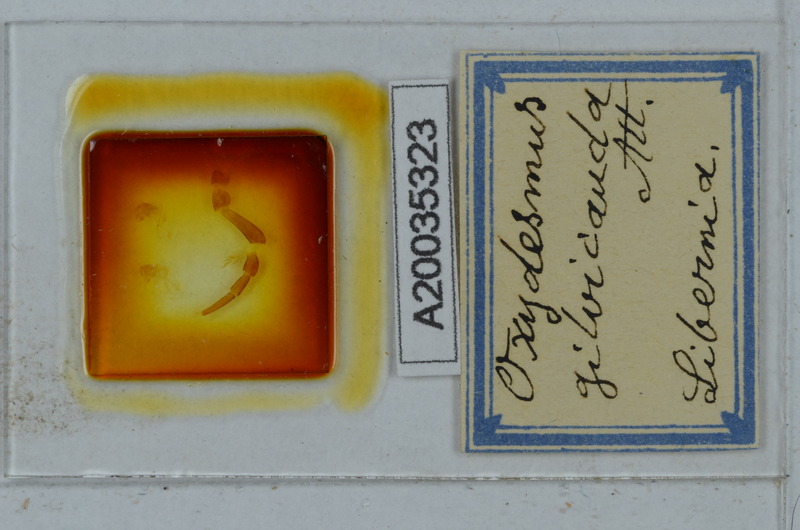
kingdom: Animalia
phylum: Arthropoda
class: Diplopoda
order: Polydesmida
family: Oxydesmidae
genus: Corominus
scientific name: Corominus gnorimus
